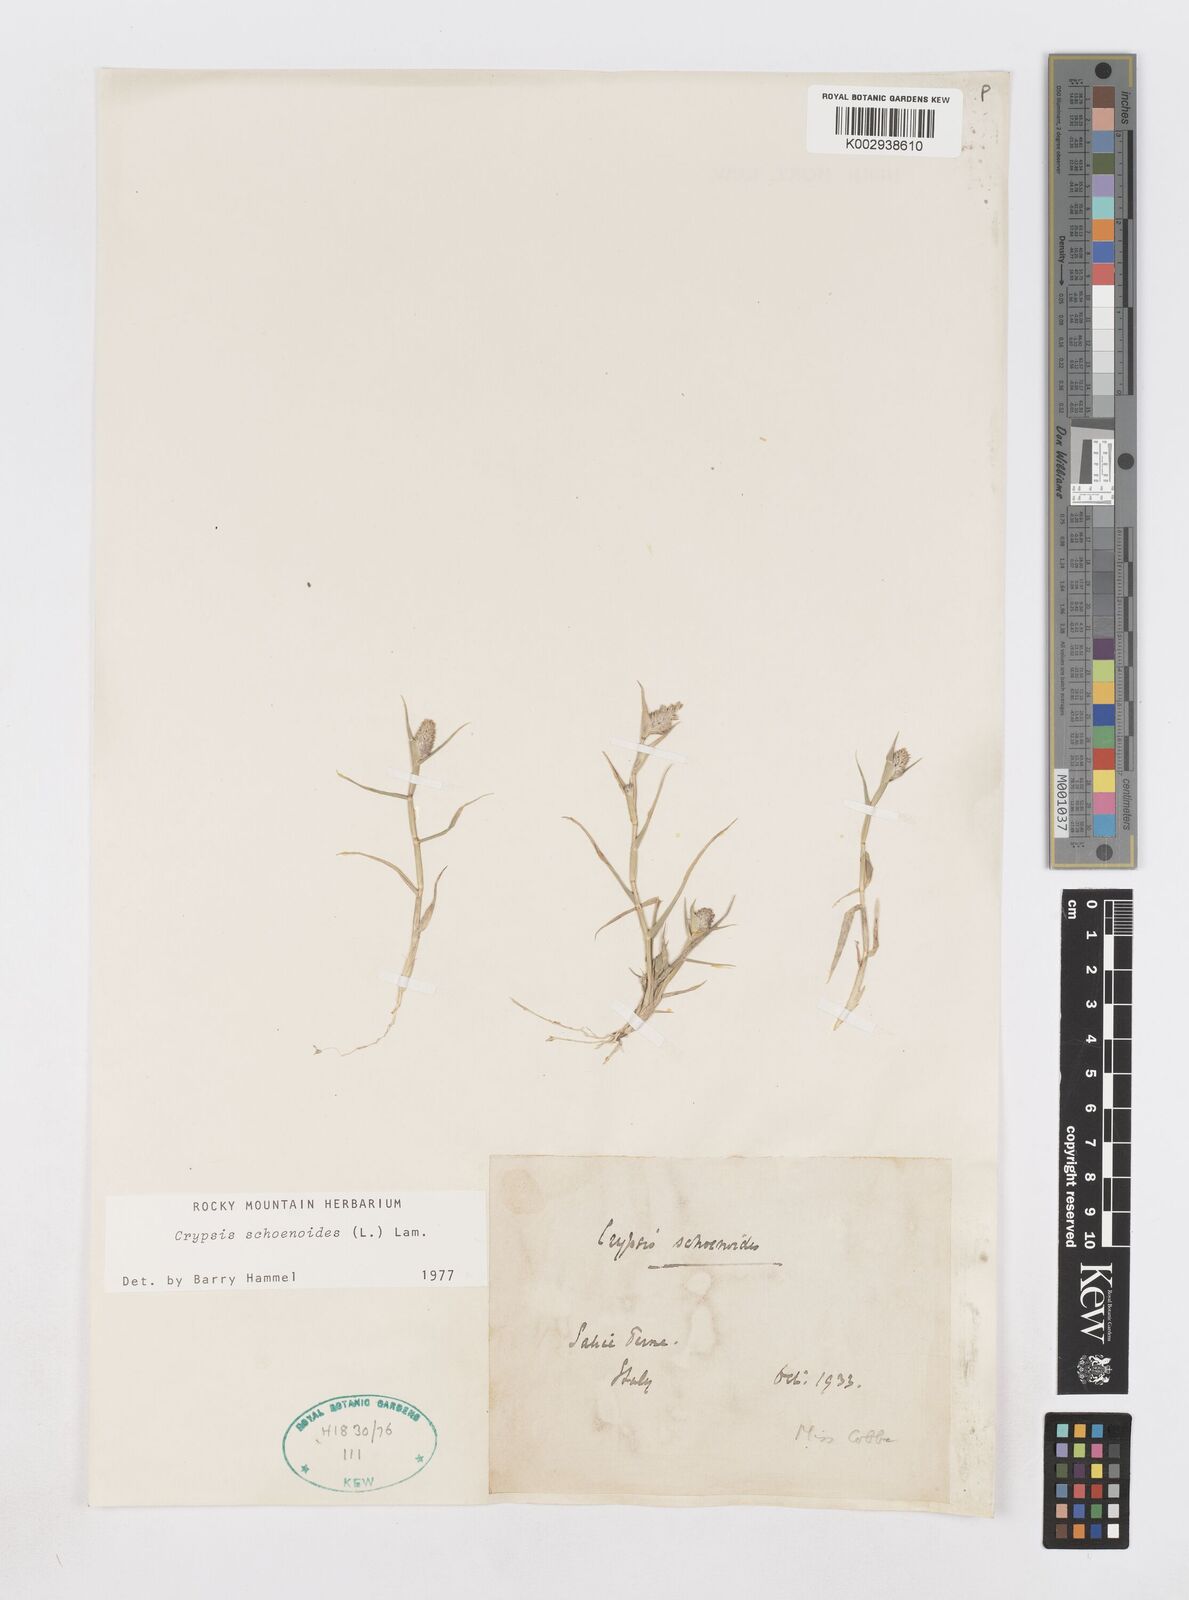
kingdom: Plantae
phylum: Tracheophyta
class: Liliopsida
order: Poales
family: Poaceae
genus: Sporobolus
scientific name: Sporobolus schoenoides
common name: Rush-like timothy
